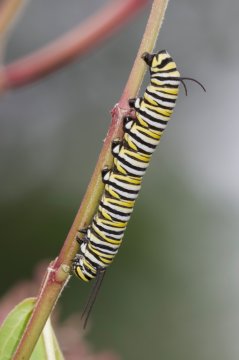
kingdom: Animalia
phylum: Arthropoda
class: Insecta
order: Lepidoptera
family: Nymphalidae
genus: Danaus
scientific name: Danaus plexippus
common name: Monarch
